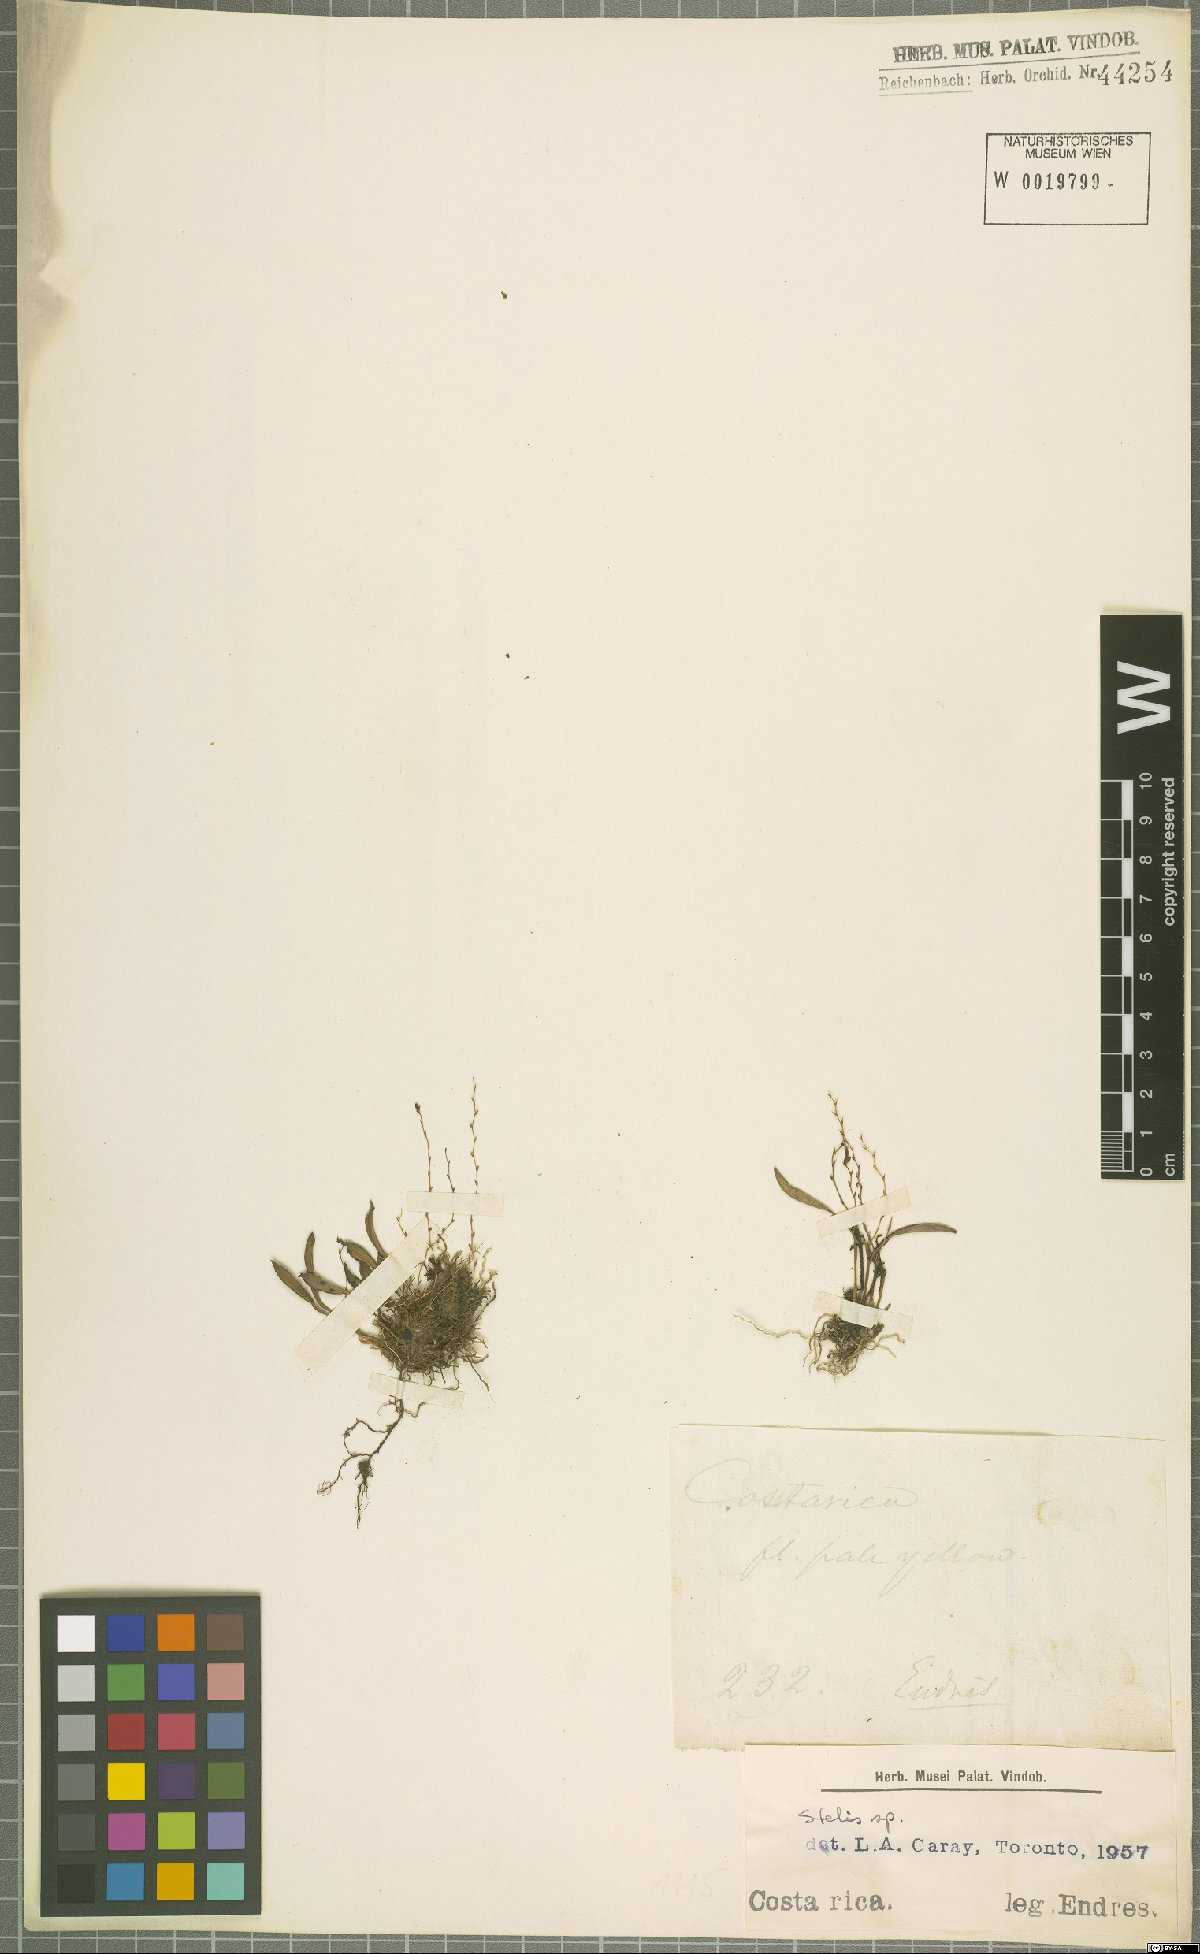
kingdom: Plantae
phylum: Tracheophyta
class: Liliopsida
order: Asparagales
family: Orchidaceae
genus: Stelis
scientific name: Stelis
